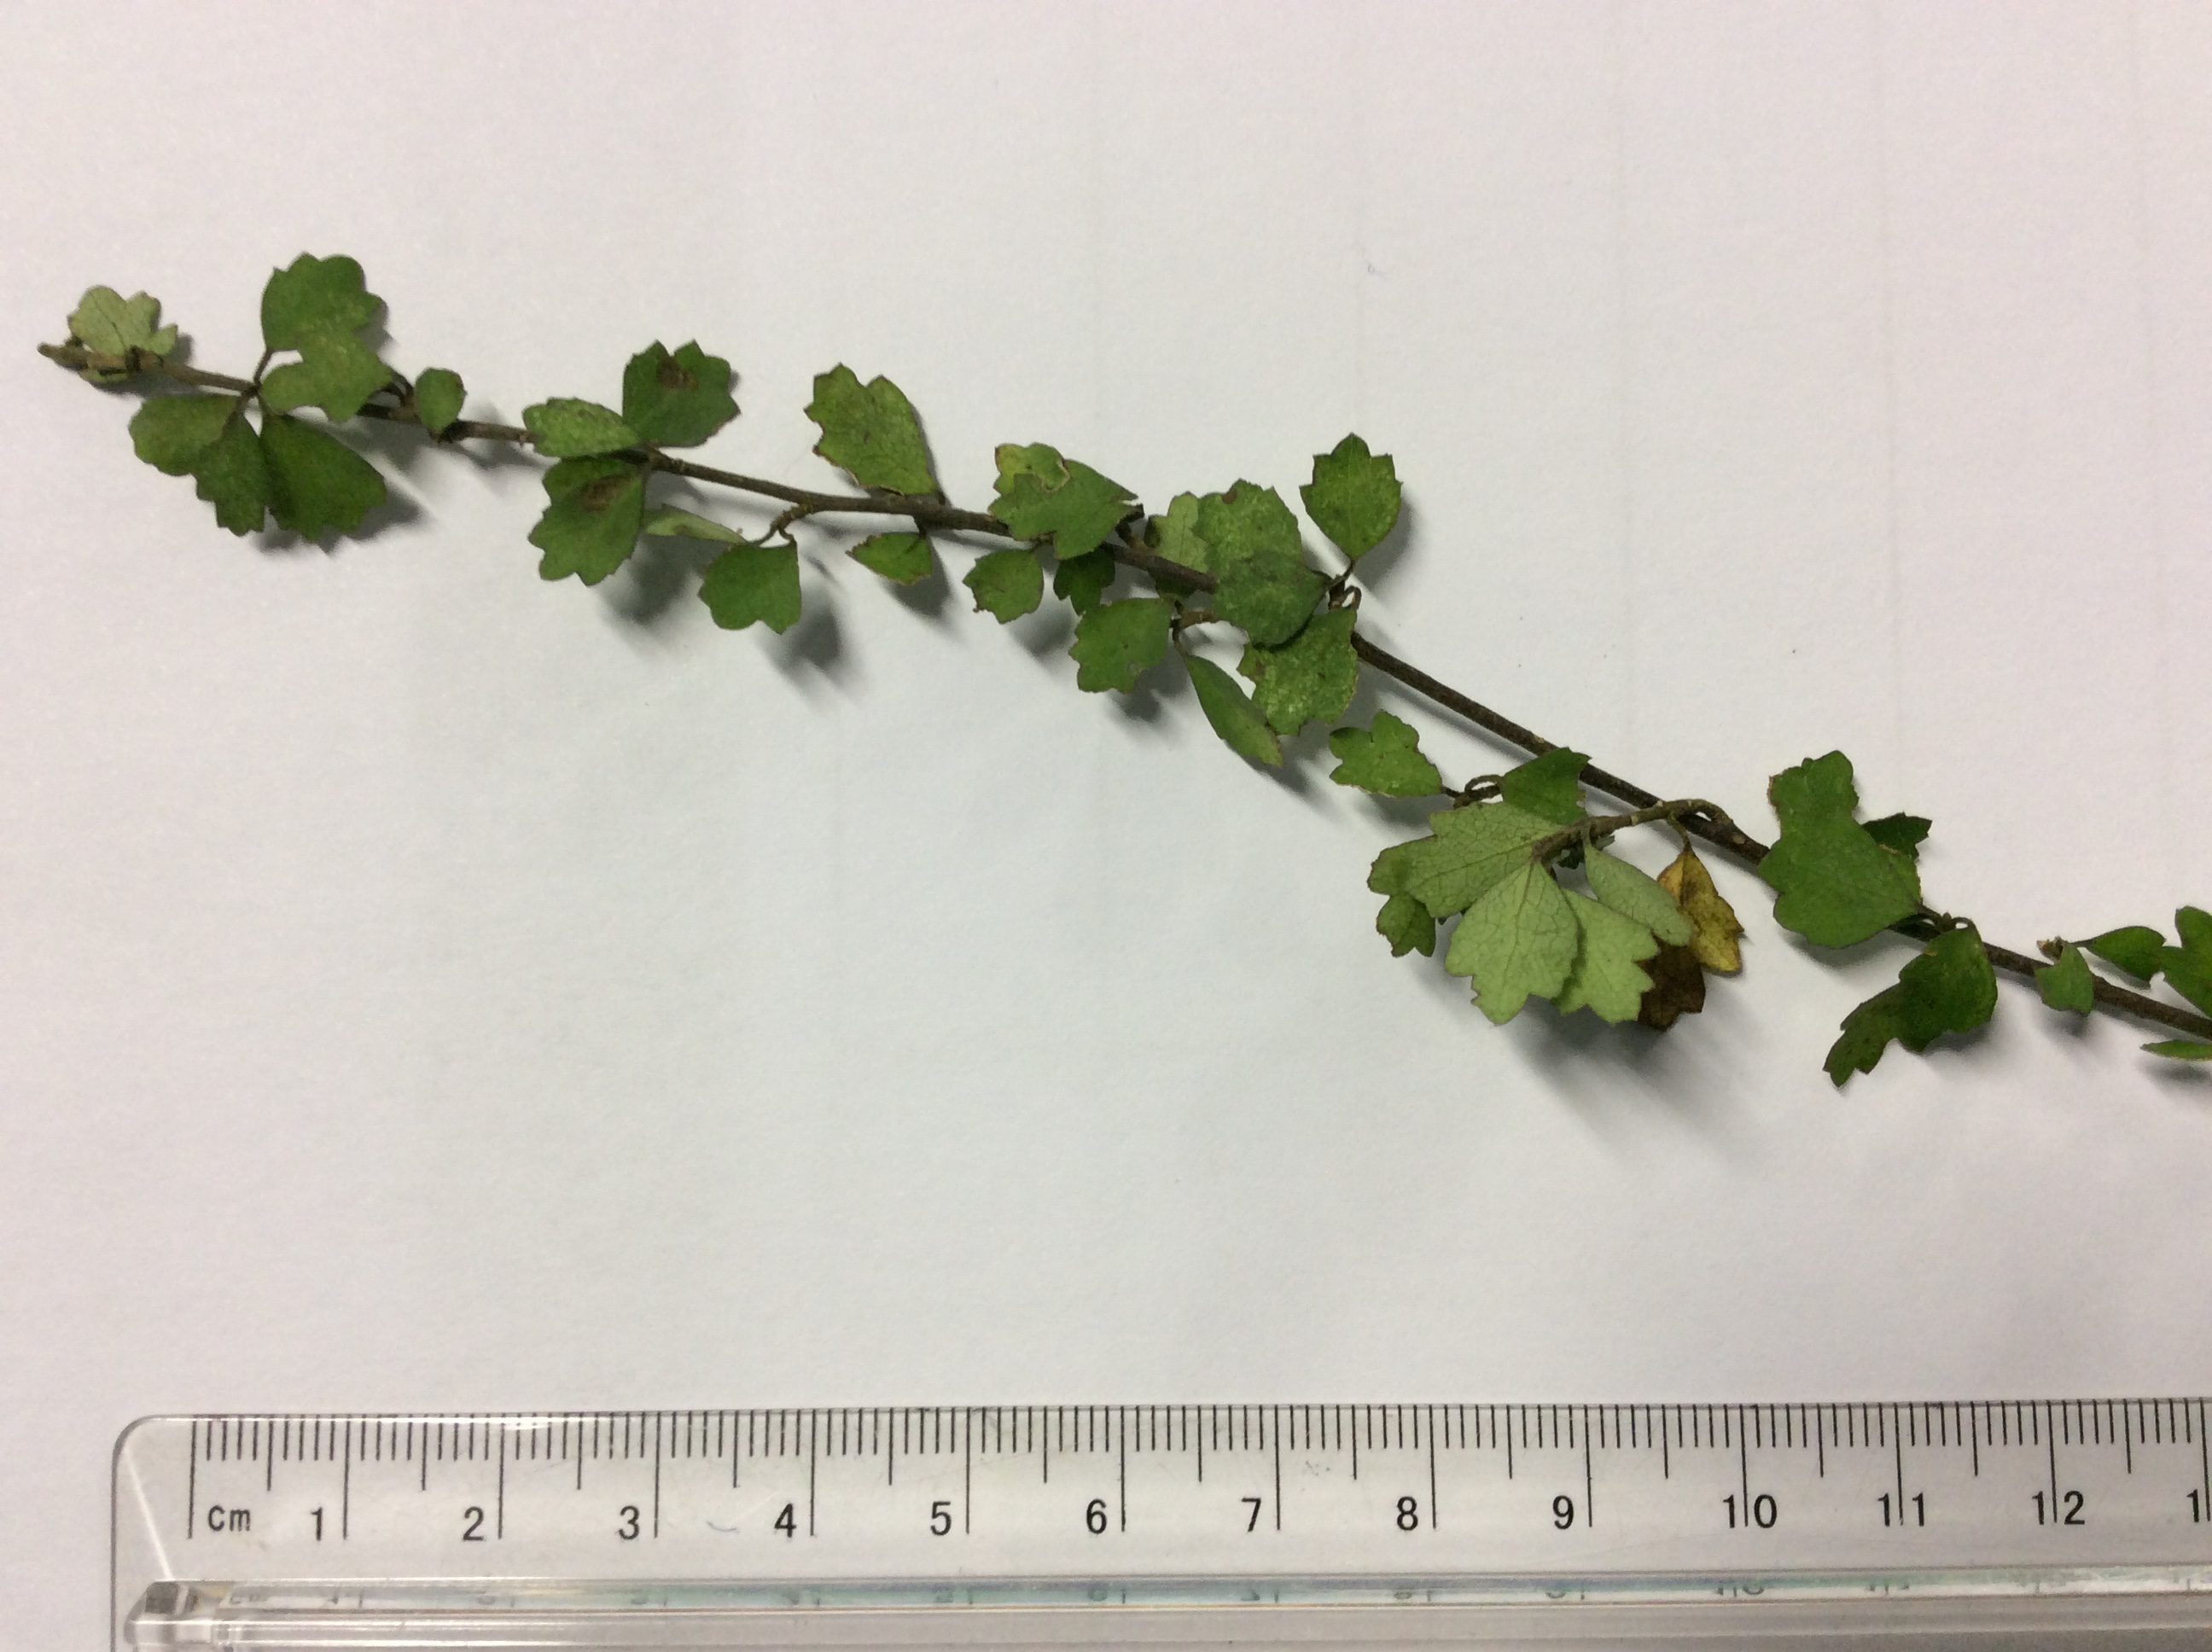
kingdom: Plantae
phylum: Tracheophyta
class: Magnoliopsida
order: Malvales
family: Malvaceae
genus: Hoheria
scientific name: Hoheria angustifolia
